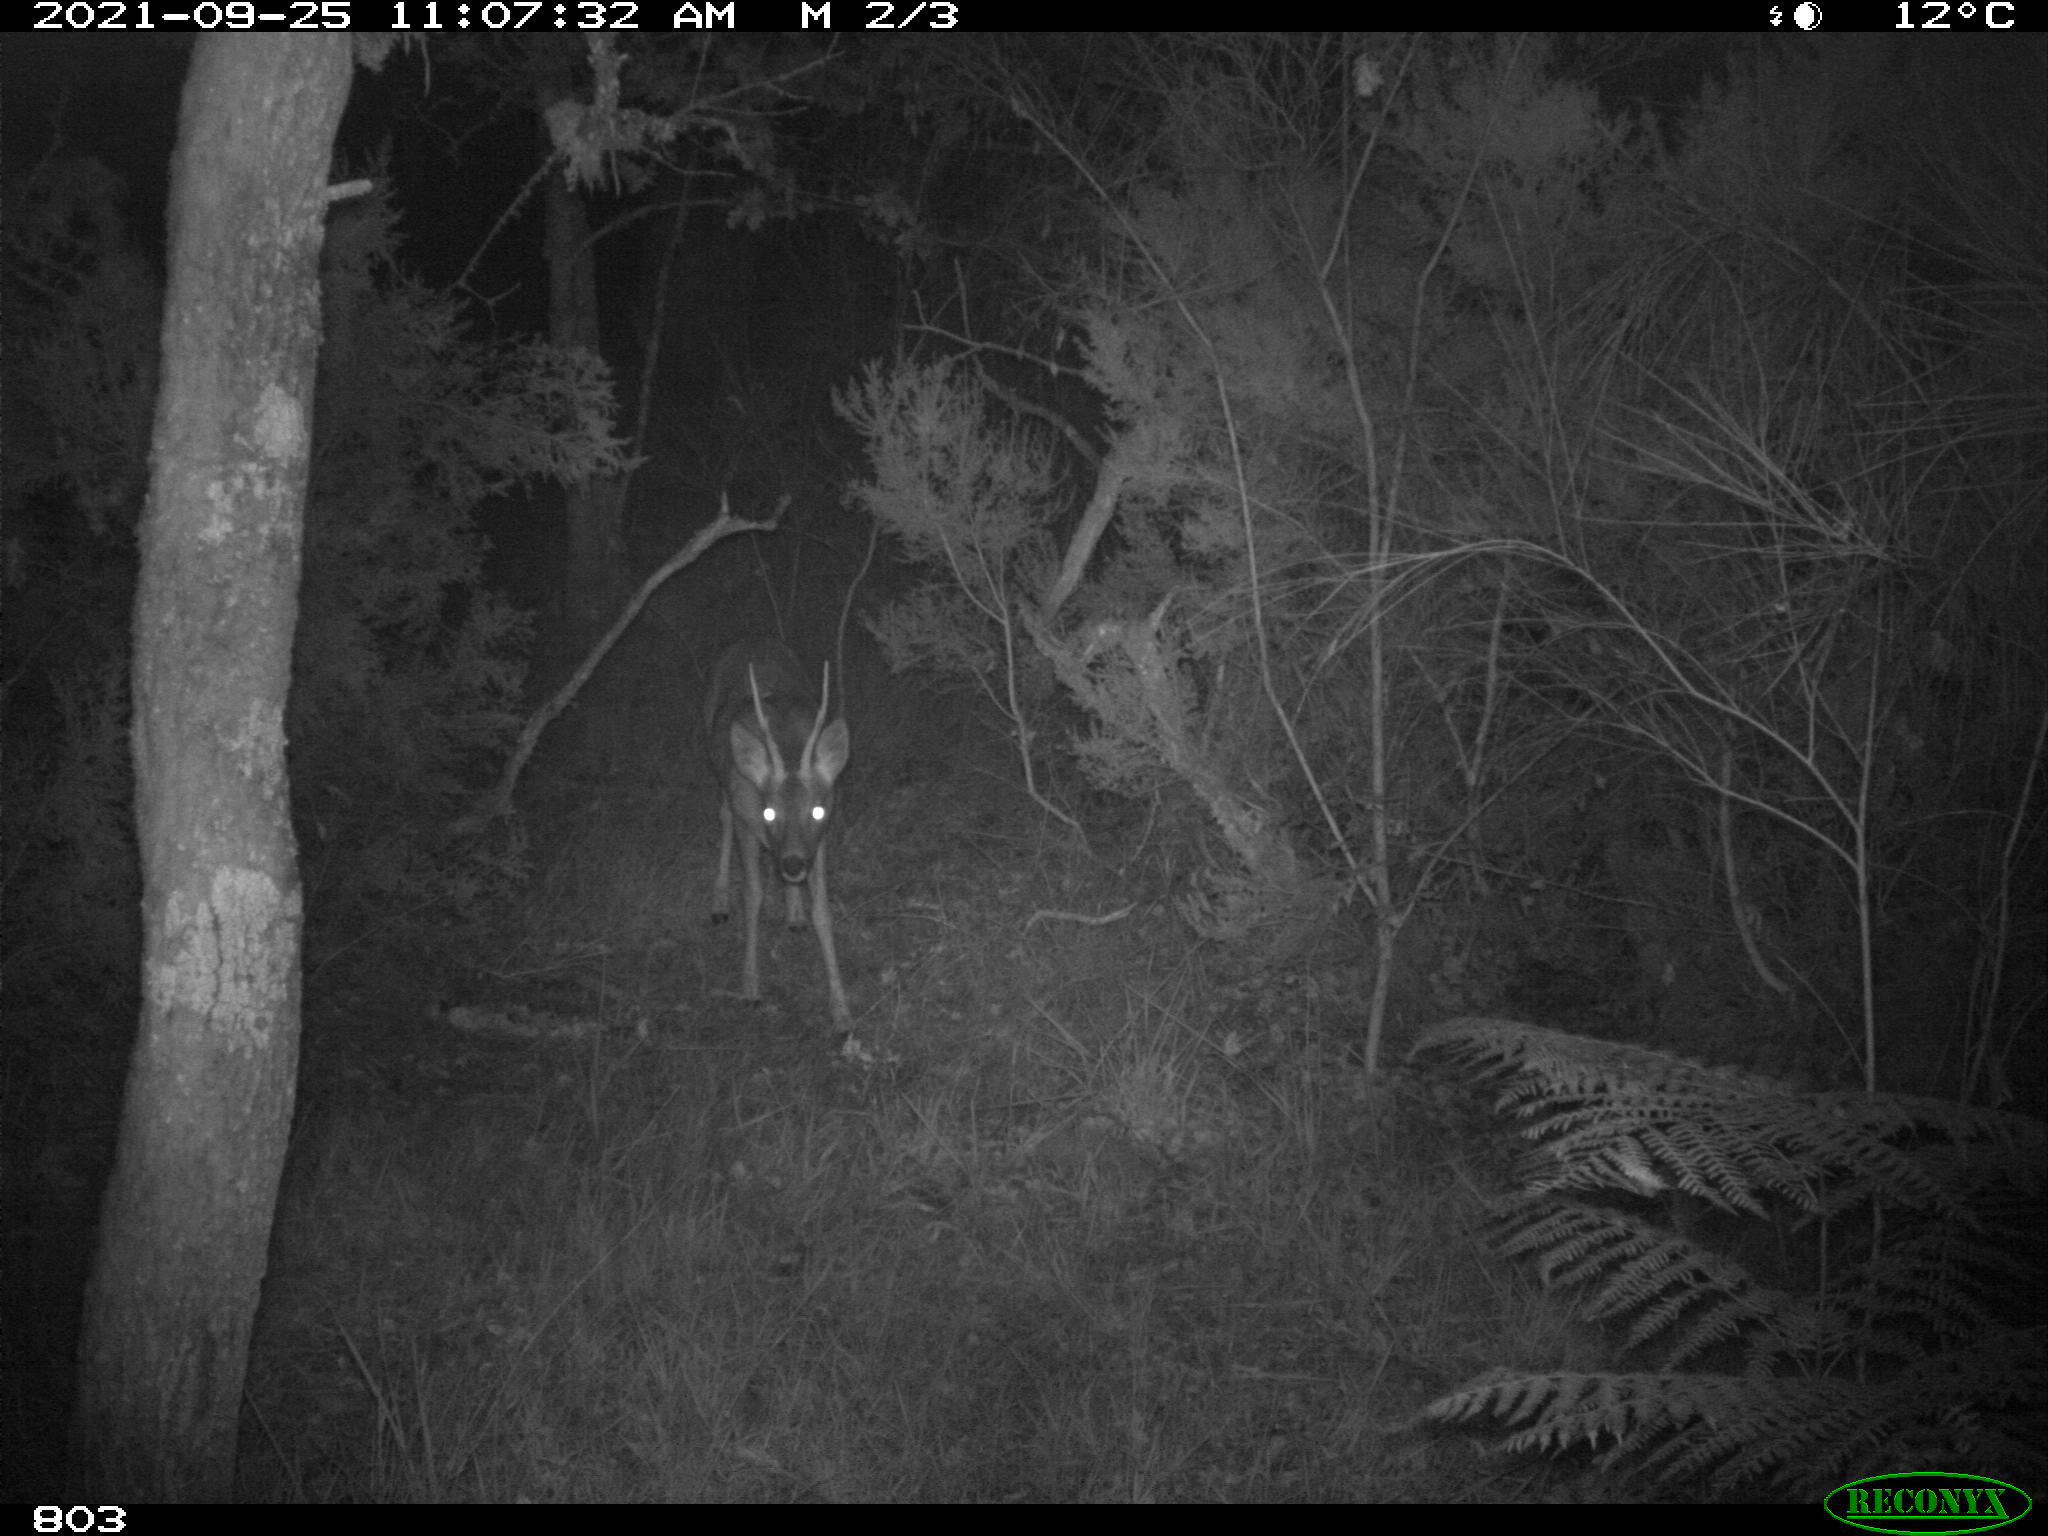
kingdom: Animalia
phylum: Chordata
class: Mammalia
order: Artiodactyla
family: Cervidae
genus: Capreolus
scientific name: Capreolus capreolus
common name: Western roe deer
